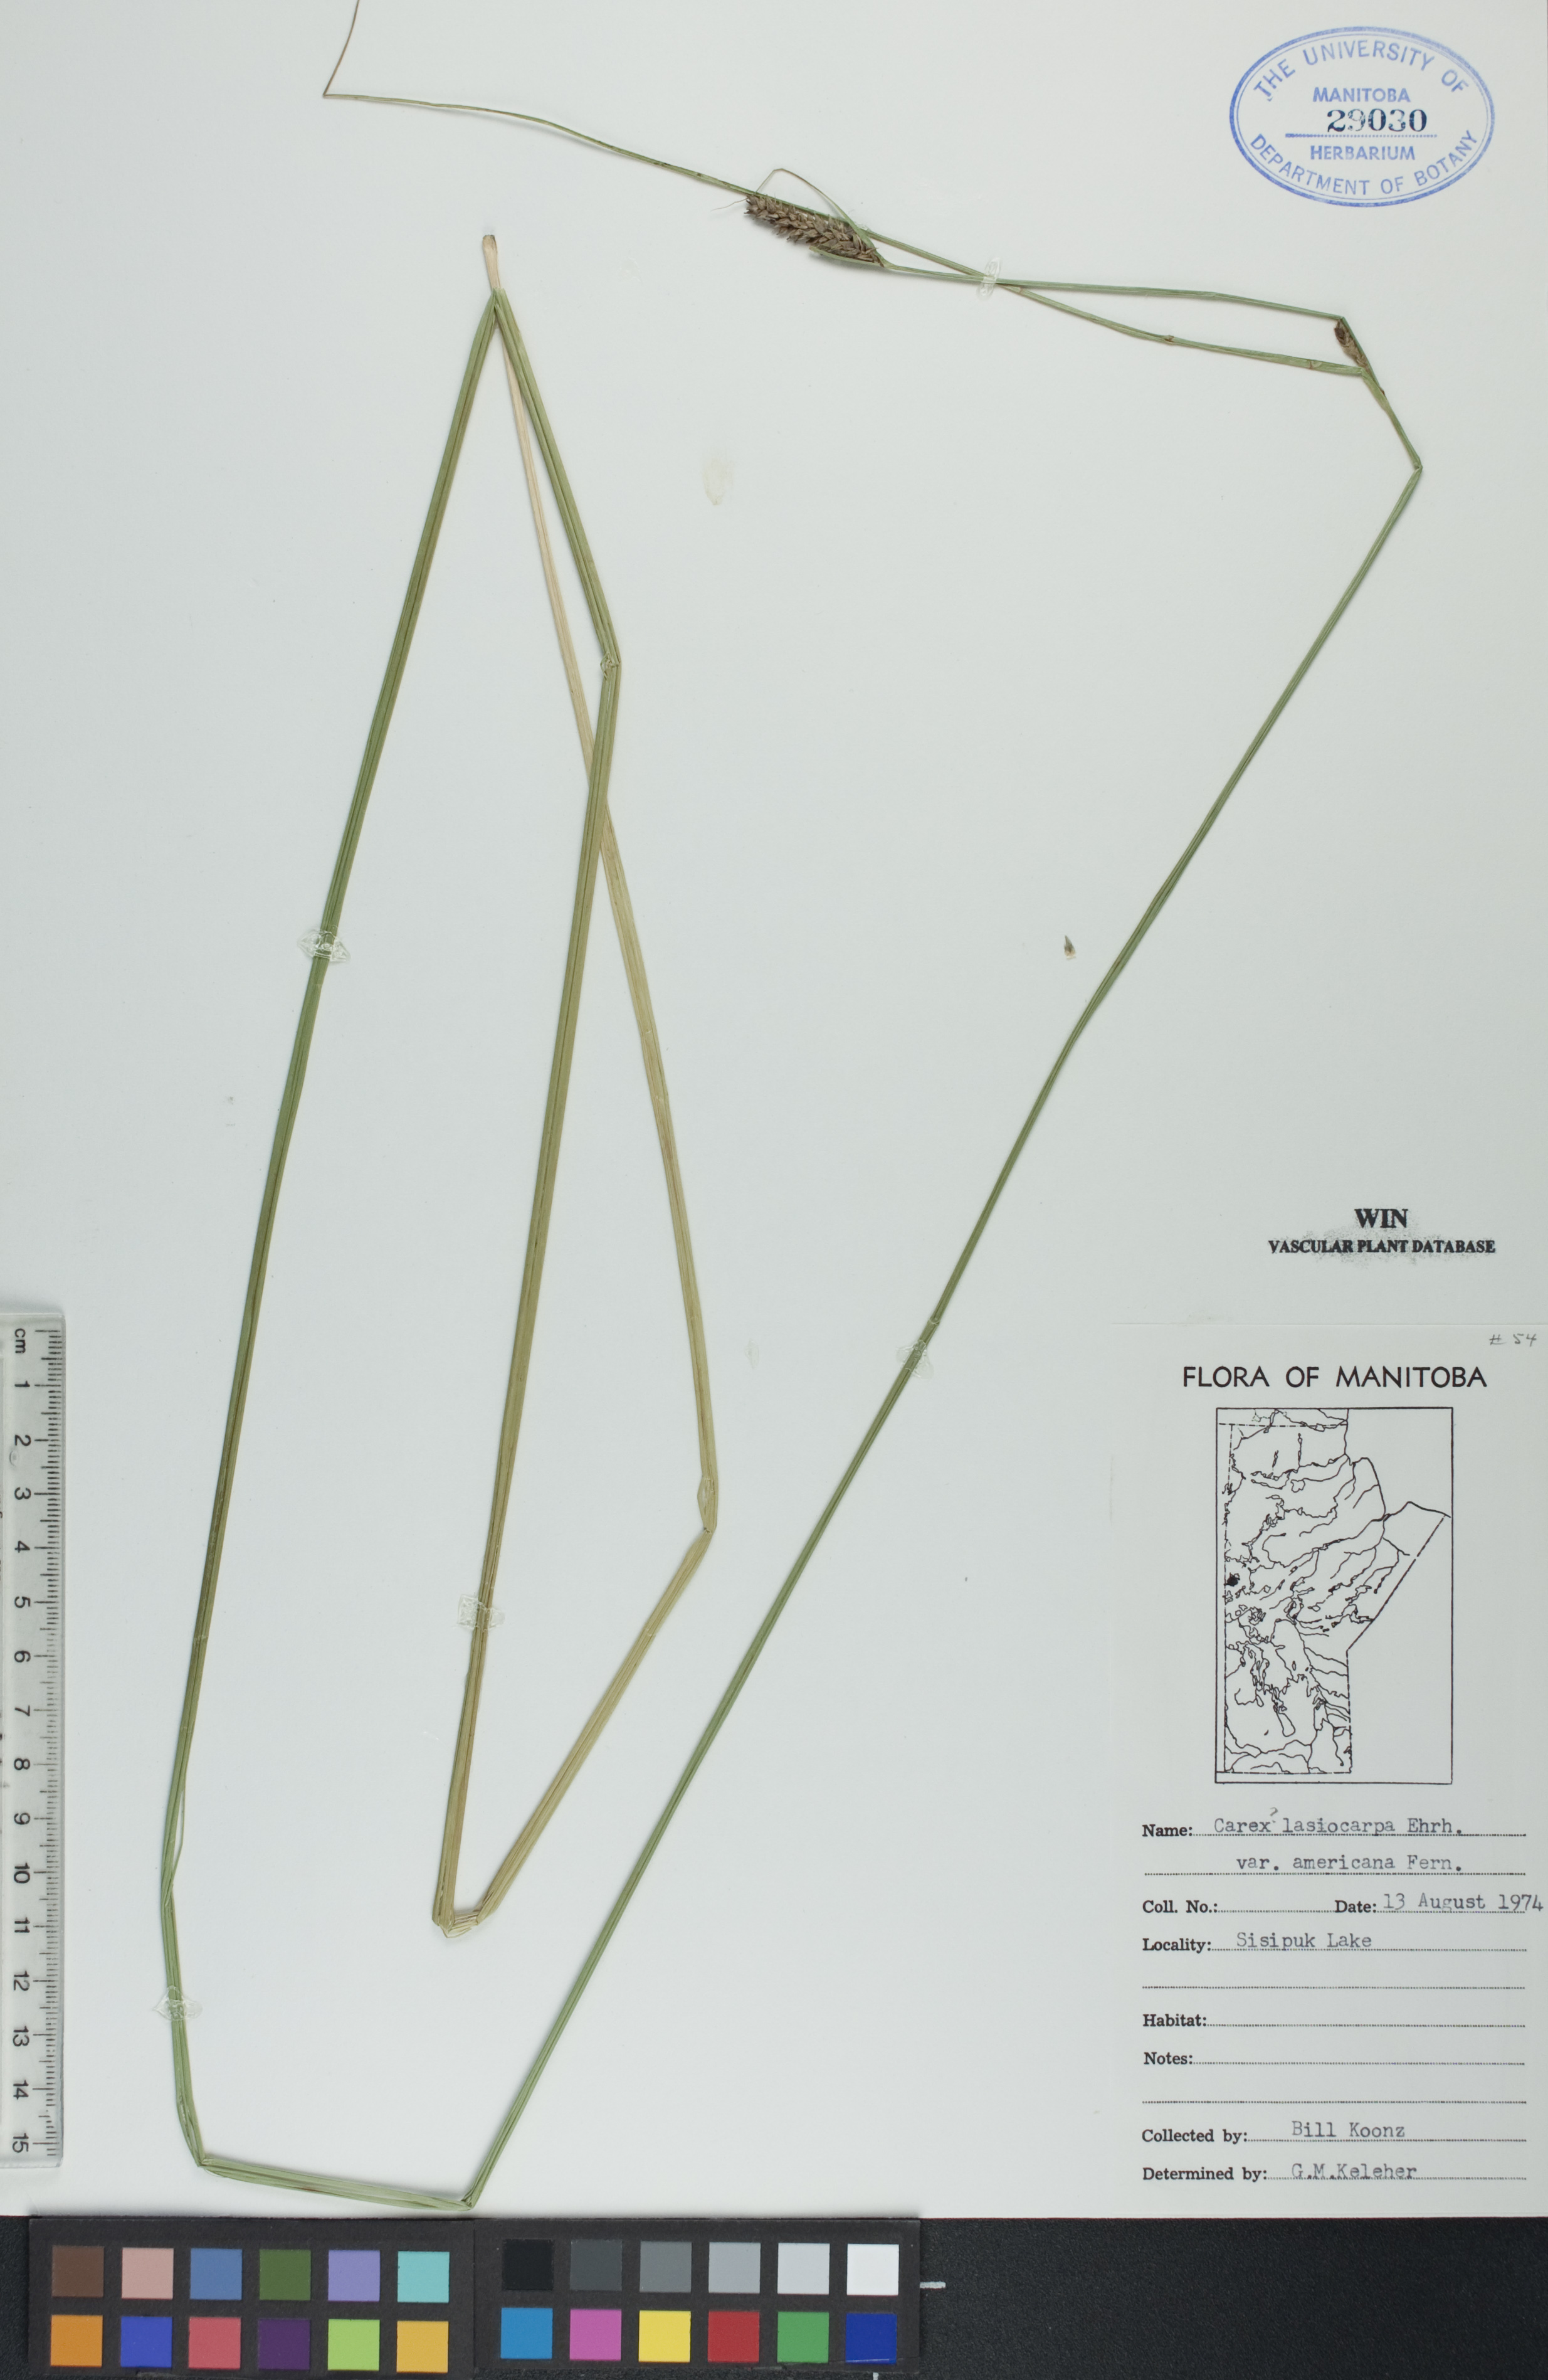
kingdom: Plantae
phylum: Tracheophyta
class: Liliopsida
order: Poales
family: Cyperaceae
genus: Carex
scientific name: Carex lasiocarpa
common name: Slender sedge
